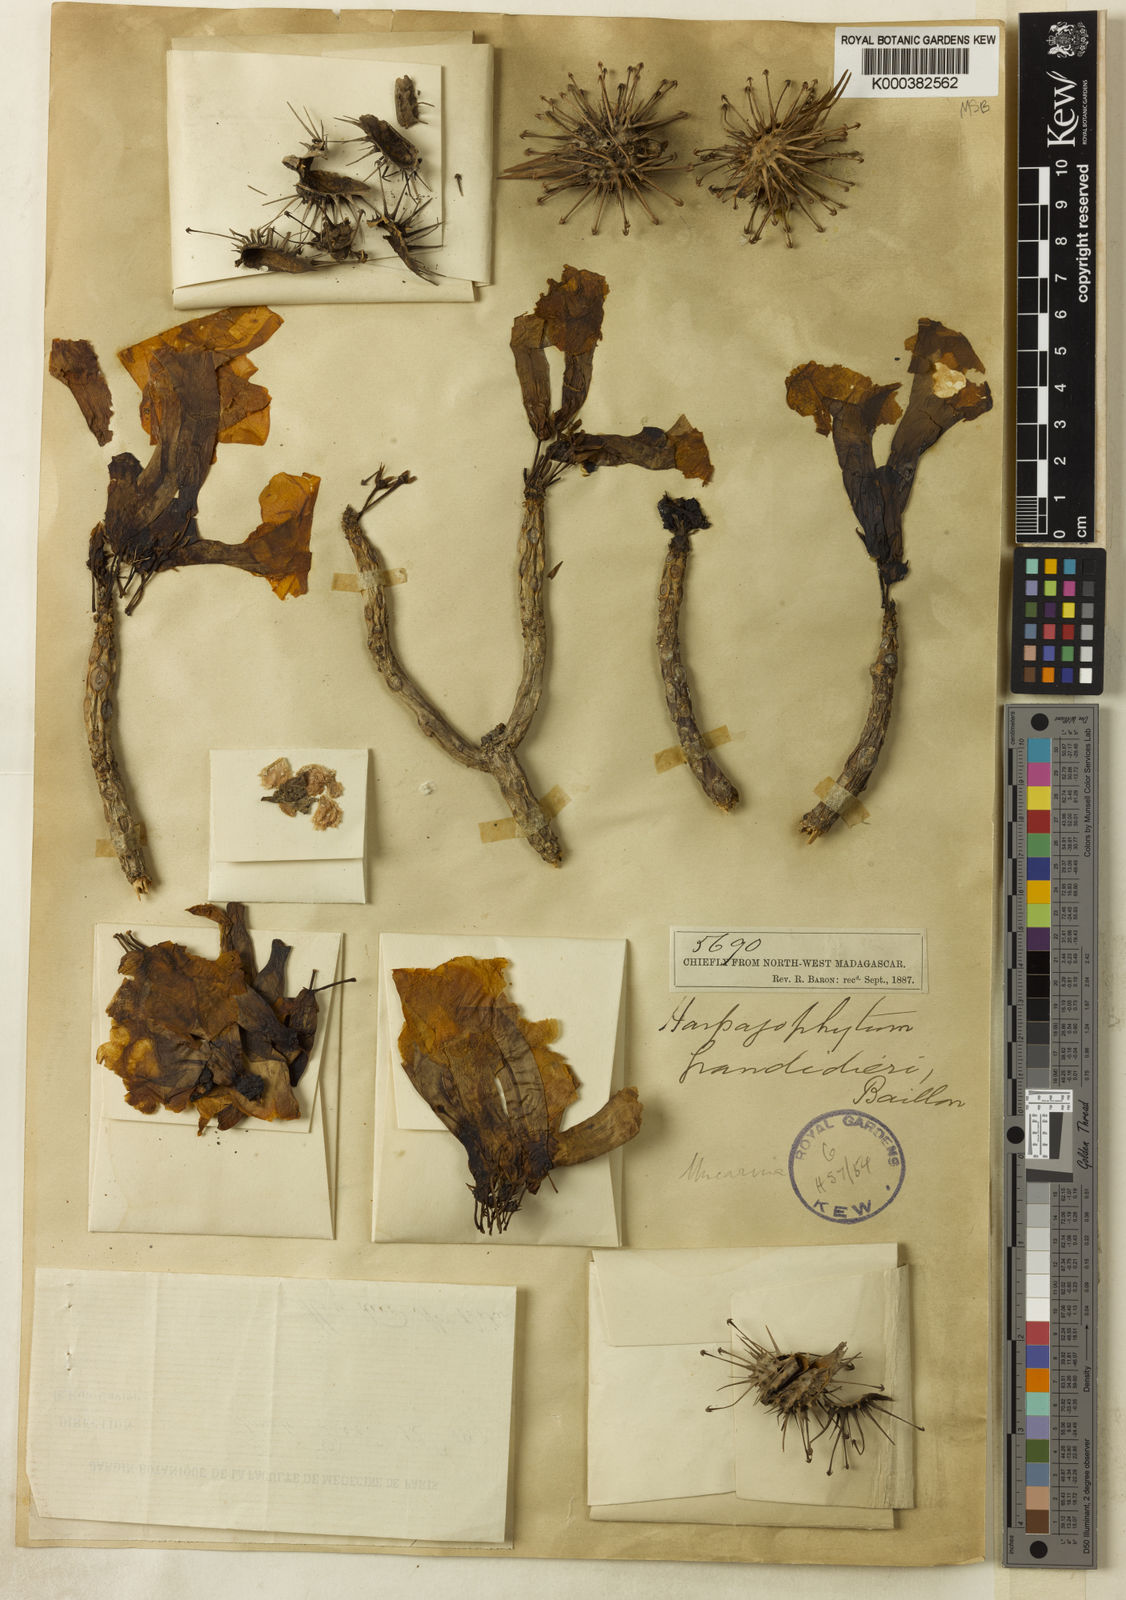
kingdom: Plantae
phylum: Tracheophyta
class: Magnoliopsida
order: Lamiales
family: Pedaliaceae
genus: Uncarina
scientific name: Uncarina
